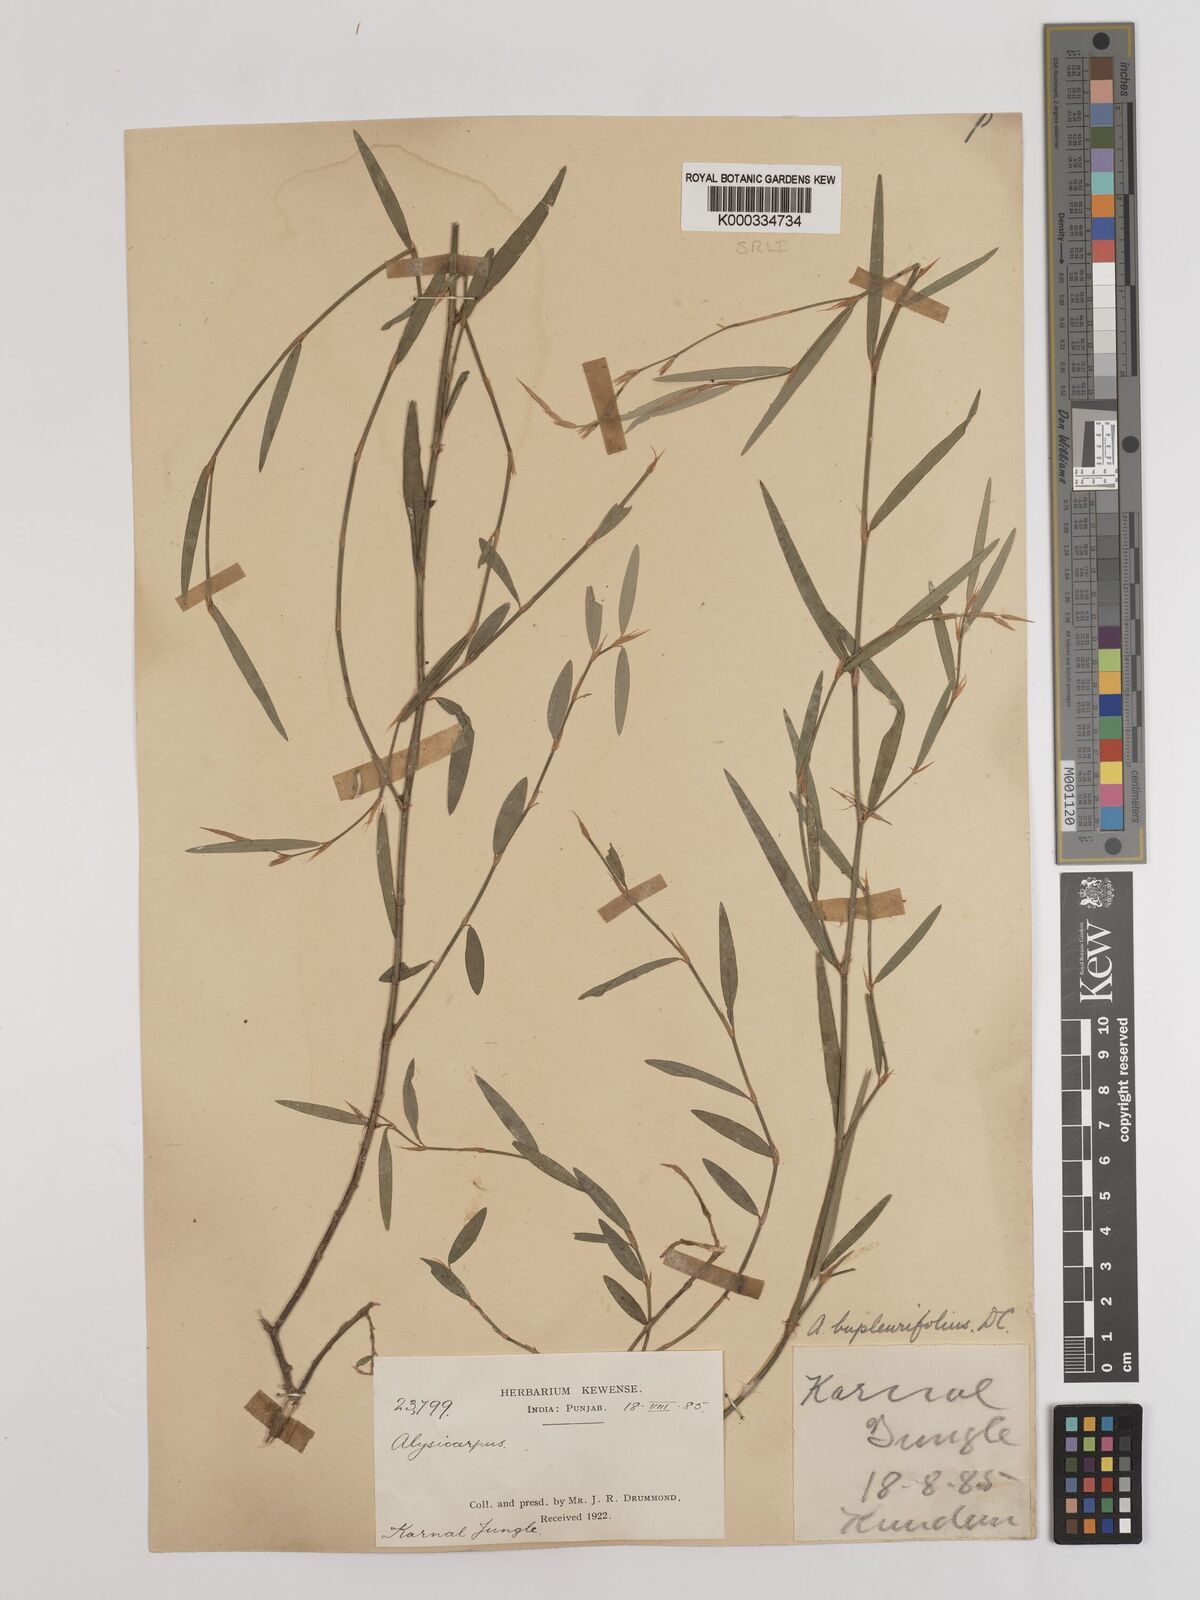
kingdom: Plantae
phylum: Tracheophyta
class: Magnoliopsida
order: Fabales
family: Fabaceae
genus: Alysicarpus
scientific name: Alysicarpus bupleurifolius
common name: Sweet alys
